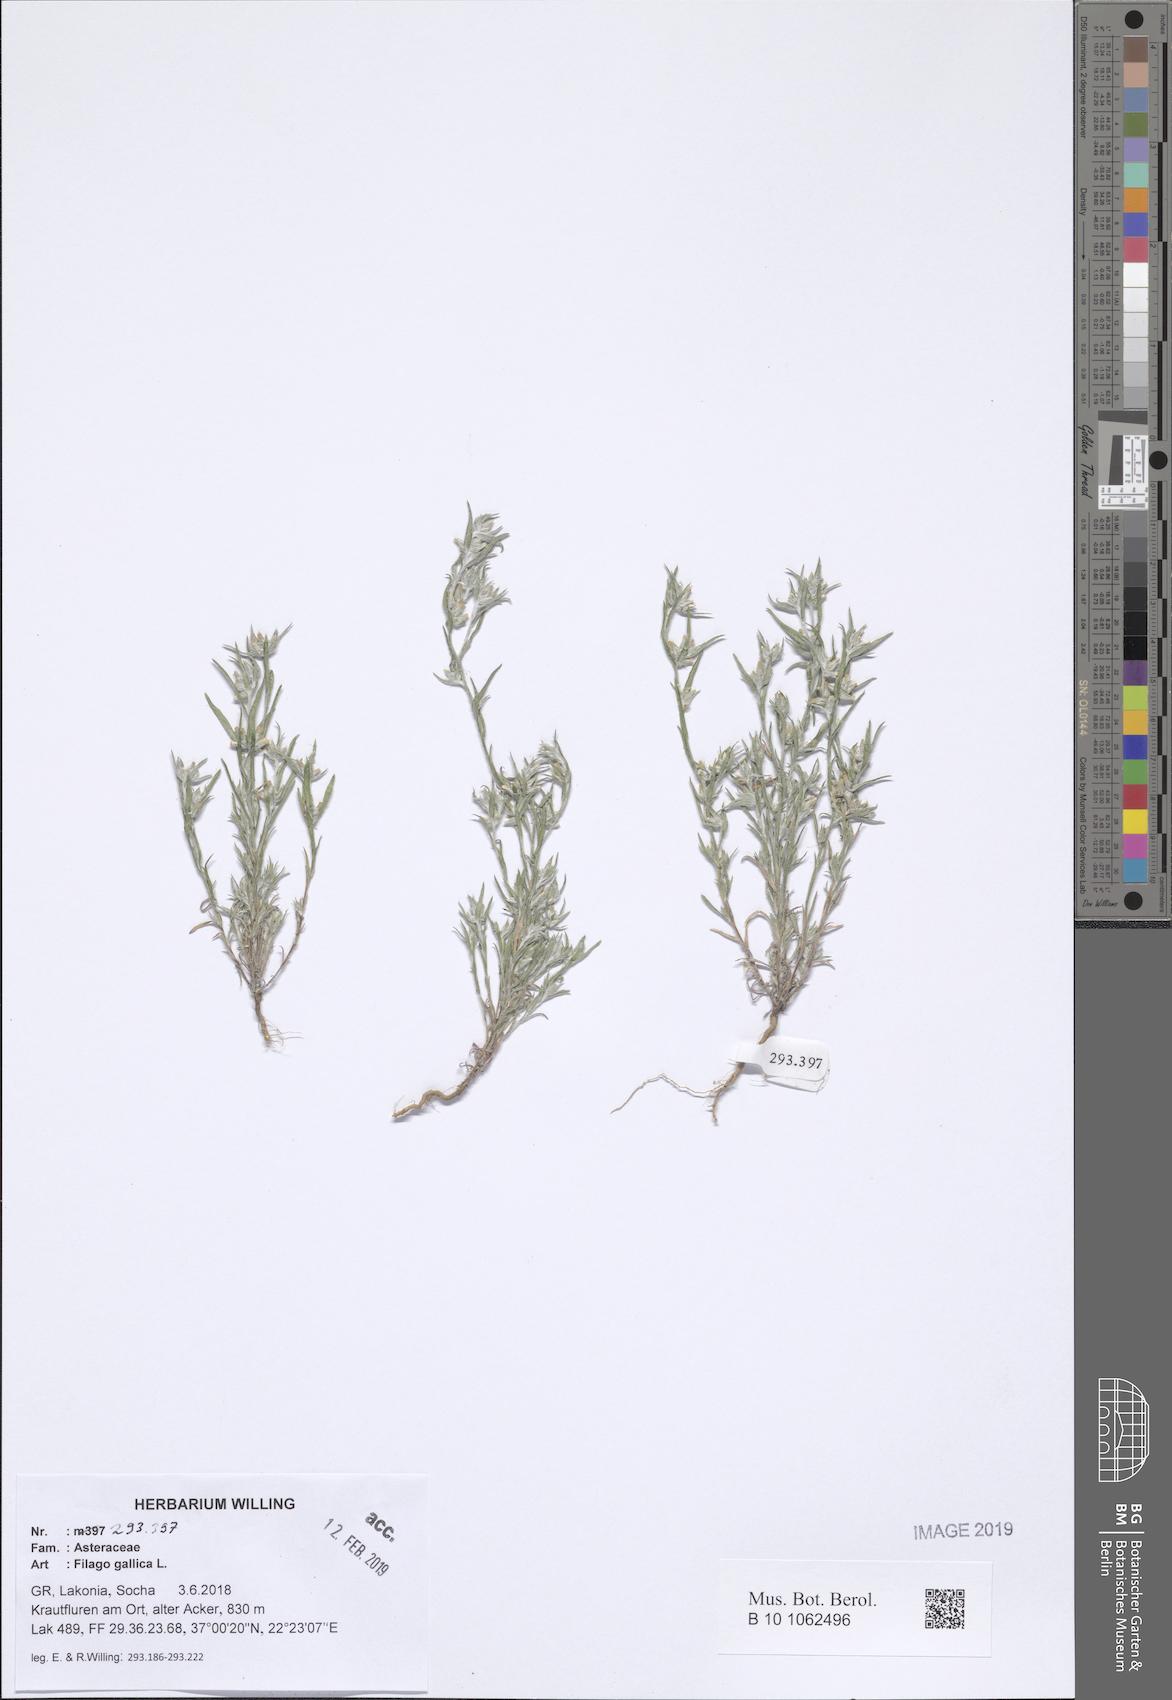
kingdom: Plantae
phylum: Tracheophyta
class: Magnoliopsida
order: Asterales
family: Asteraceae
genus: Logfia
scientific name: Logfia gallica
